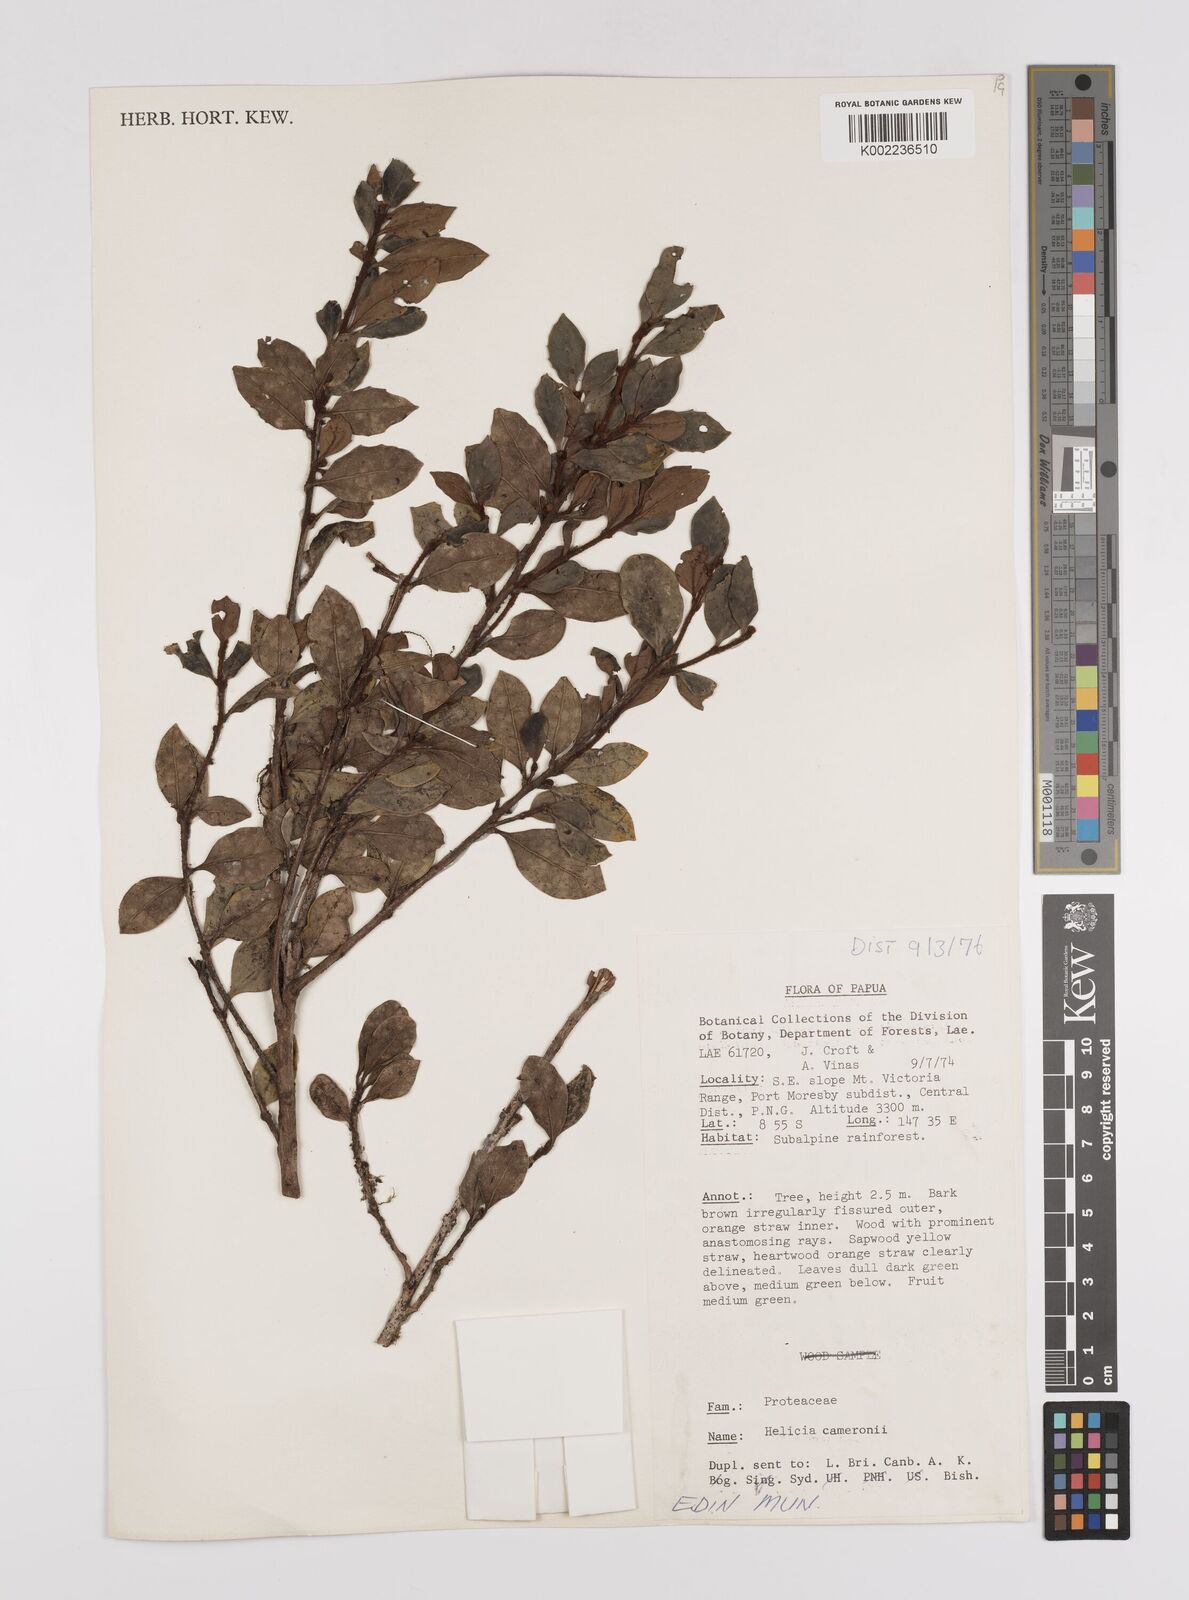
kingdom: Plantae
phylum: Tracheophyta
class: Magnoliopsida
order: Proteales
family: Proteaceae
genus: Helicia
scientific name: Helicia cameronii
